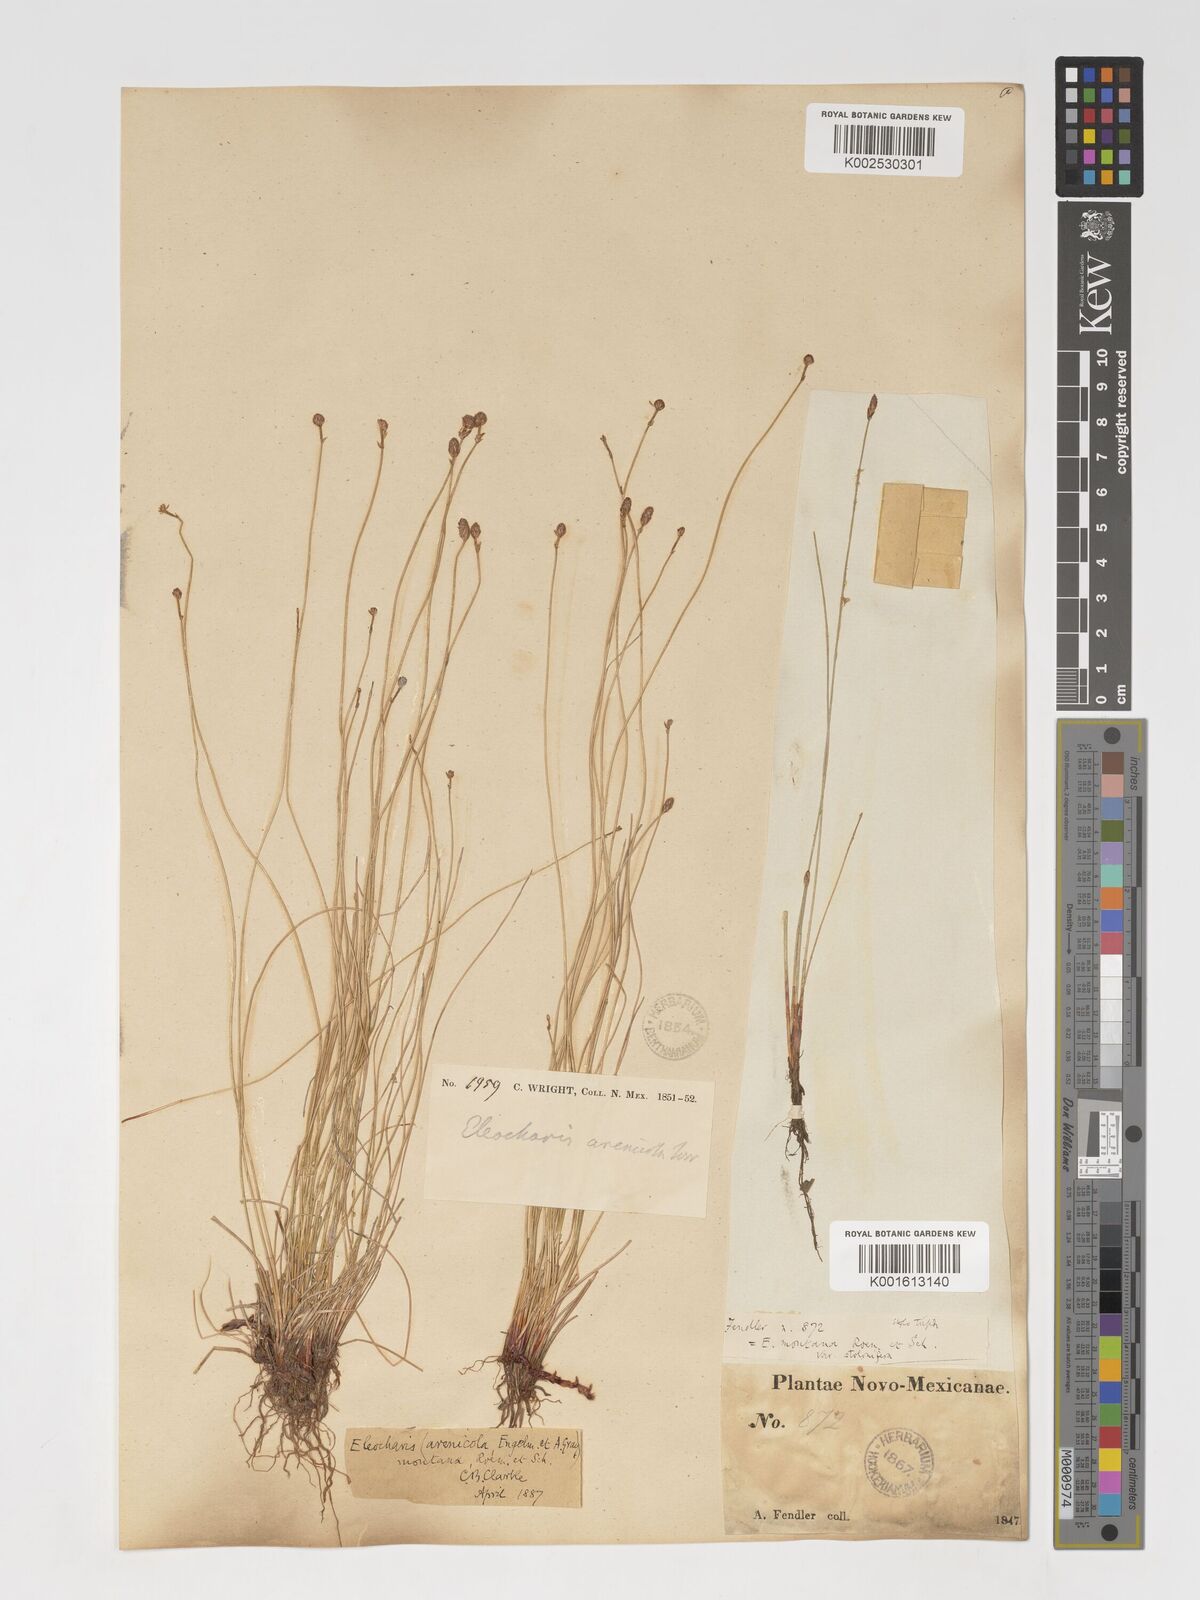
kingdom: Plantae
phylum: Tracheophyta
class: Liliopsida
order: Poales
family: Cyperaceae
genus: Eleocharis
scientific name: Eleocharis montana
